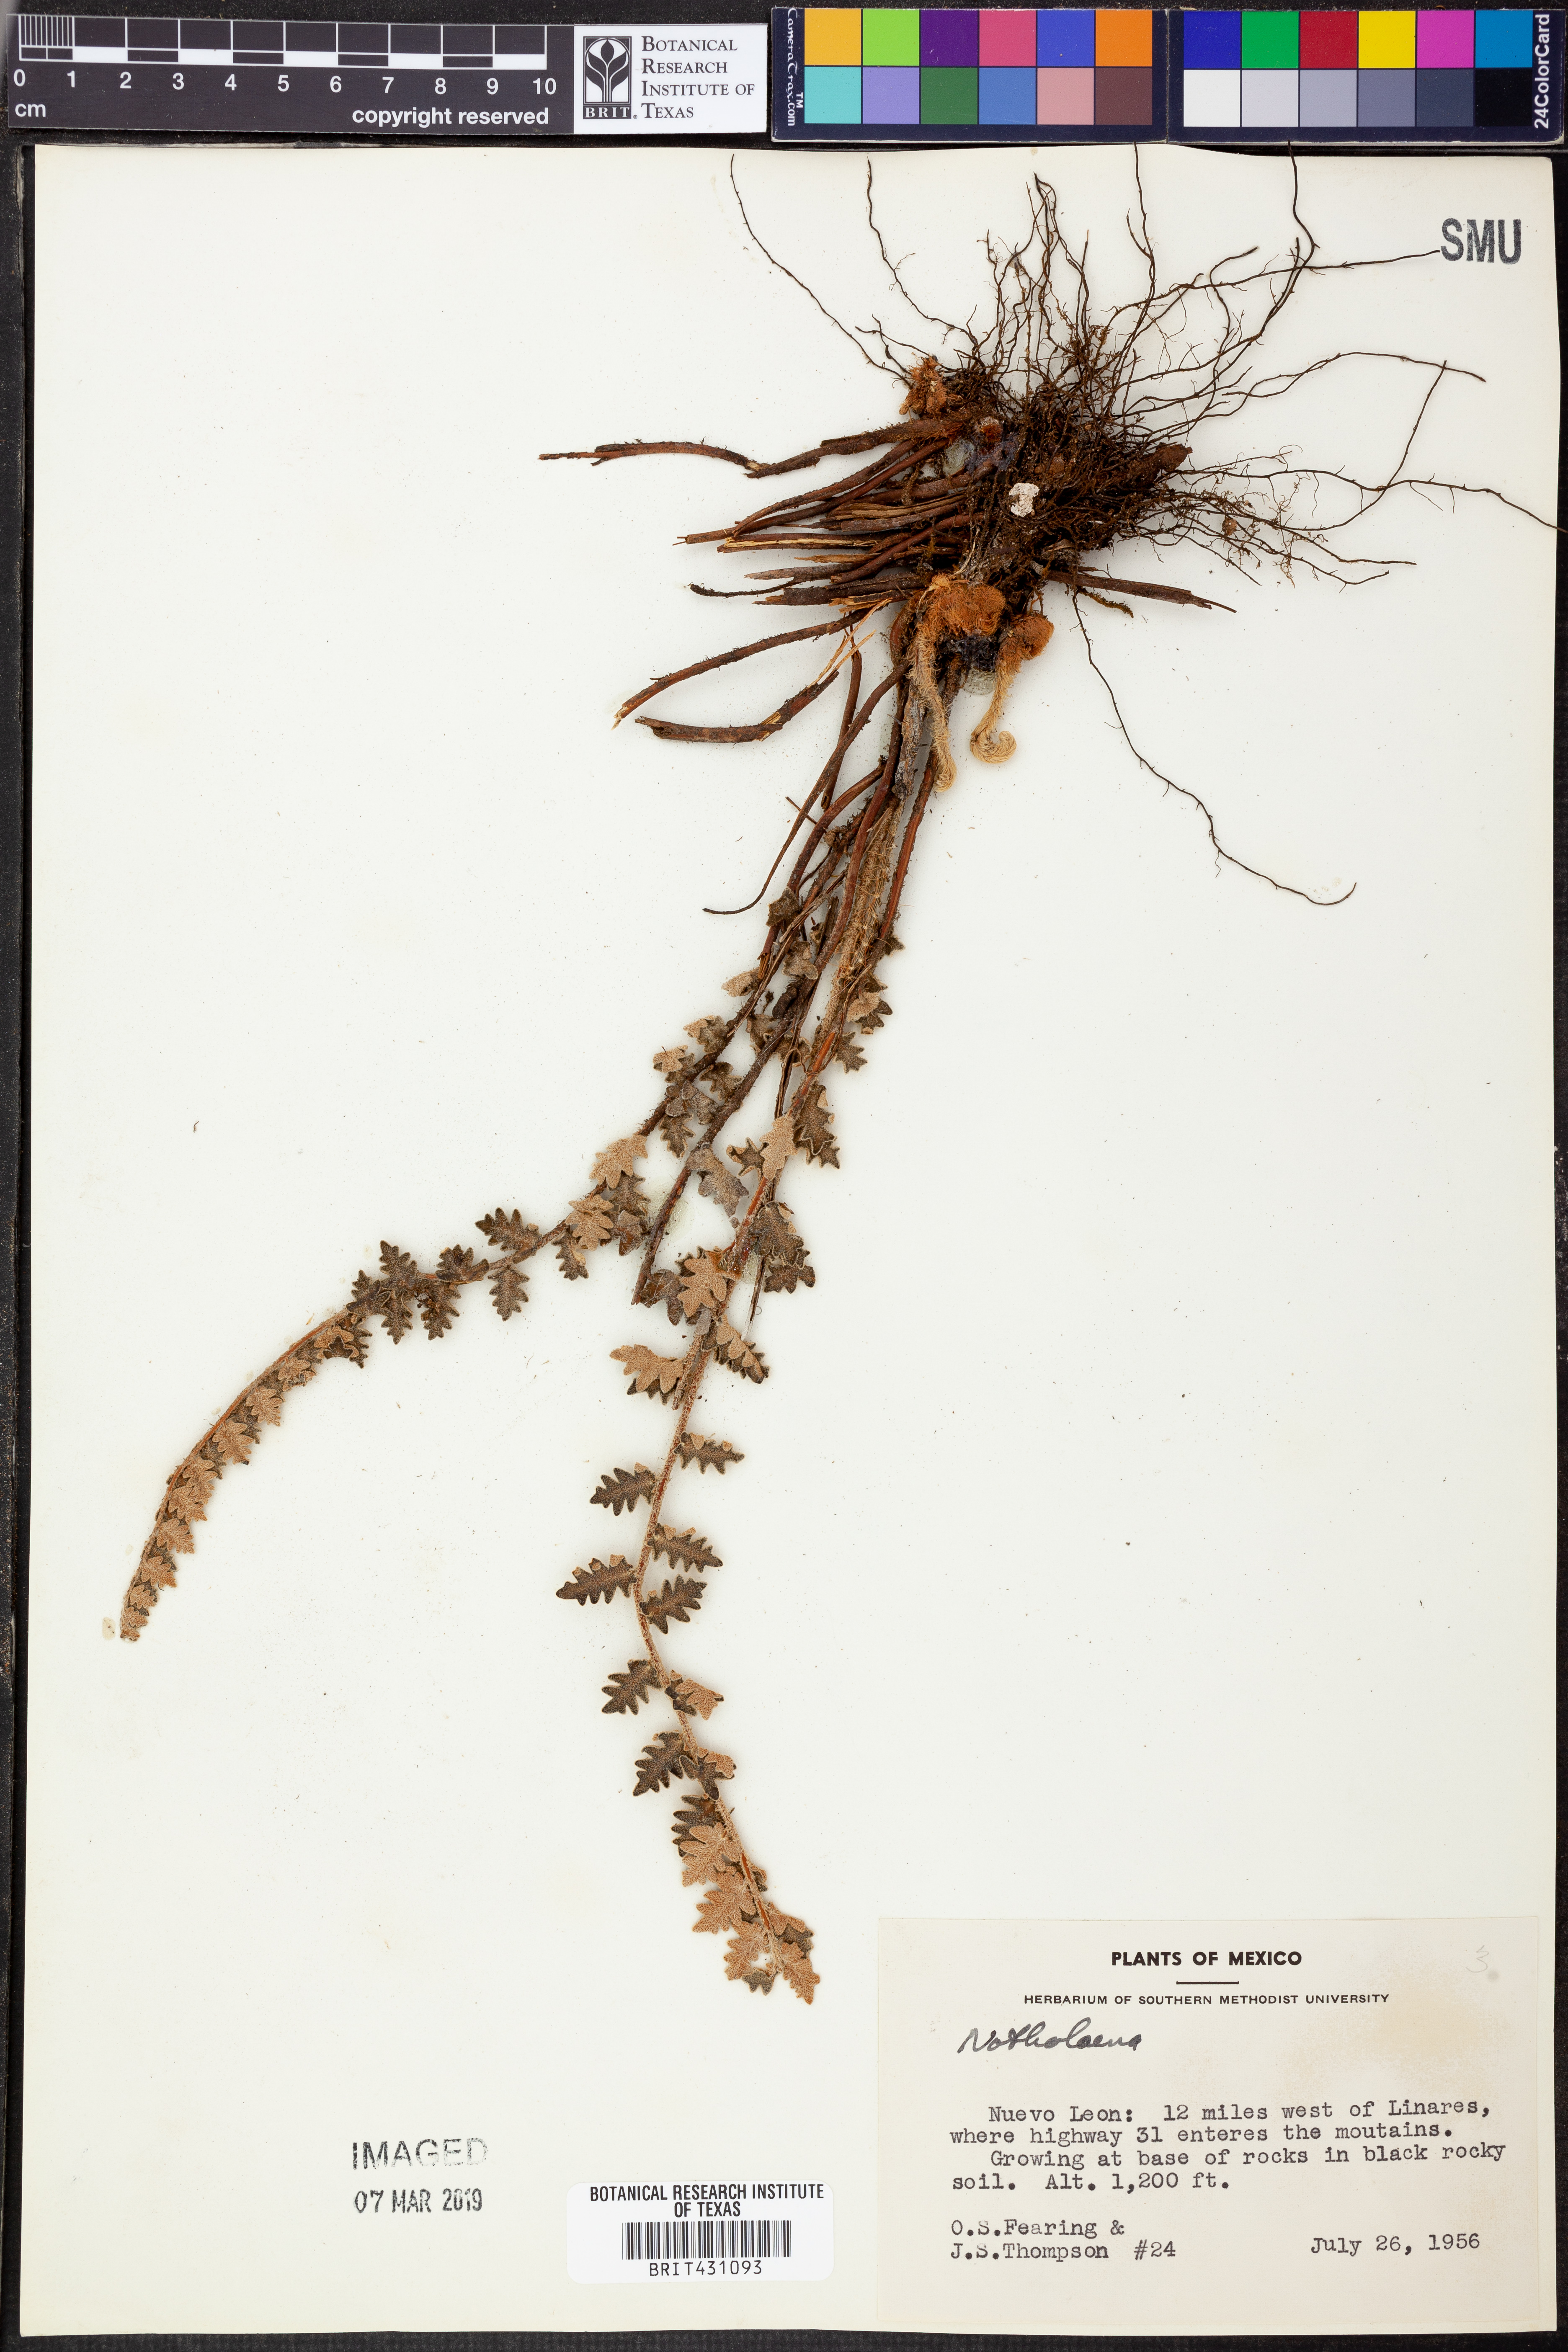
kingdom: Plantae
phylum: Tracheophyta
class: Polypodiopsida
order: Polypodiales
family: Pteridaceae
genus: Notholaena
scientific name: Notholaena
